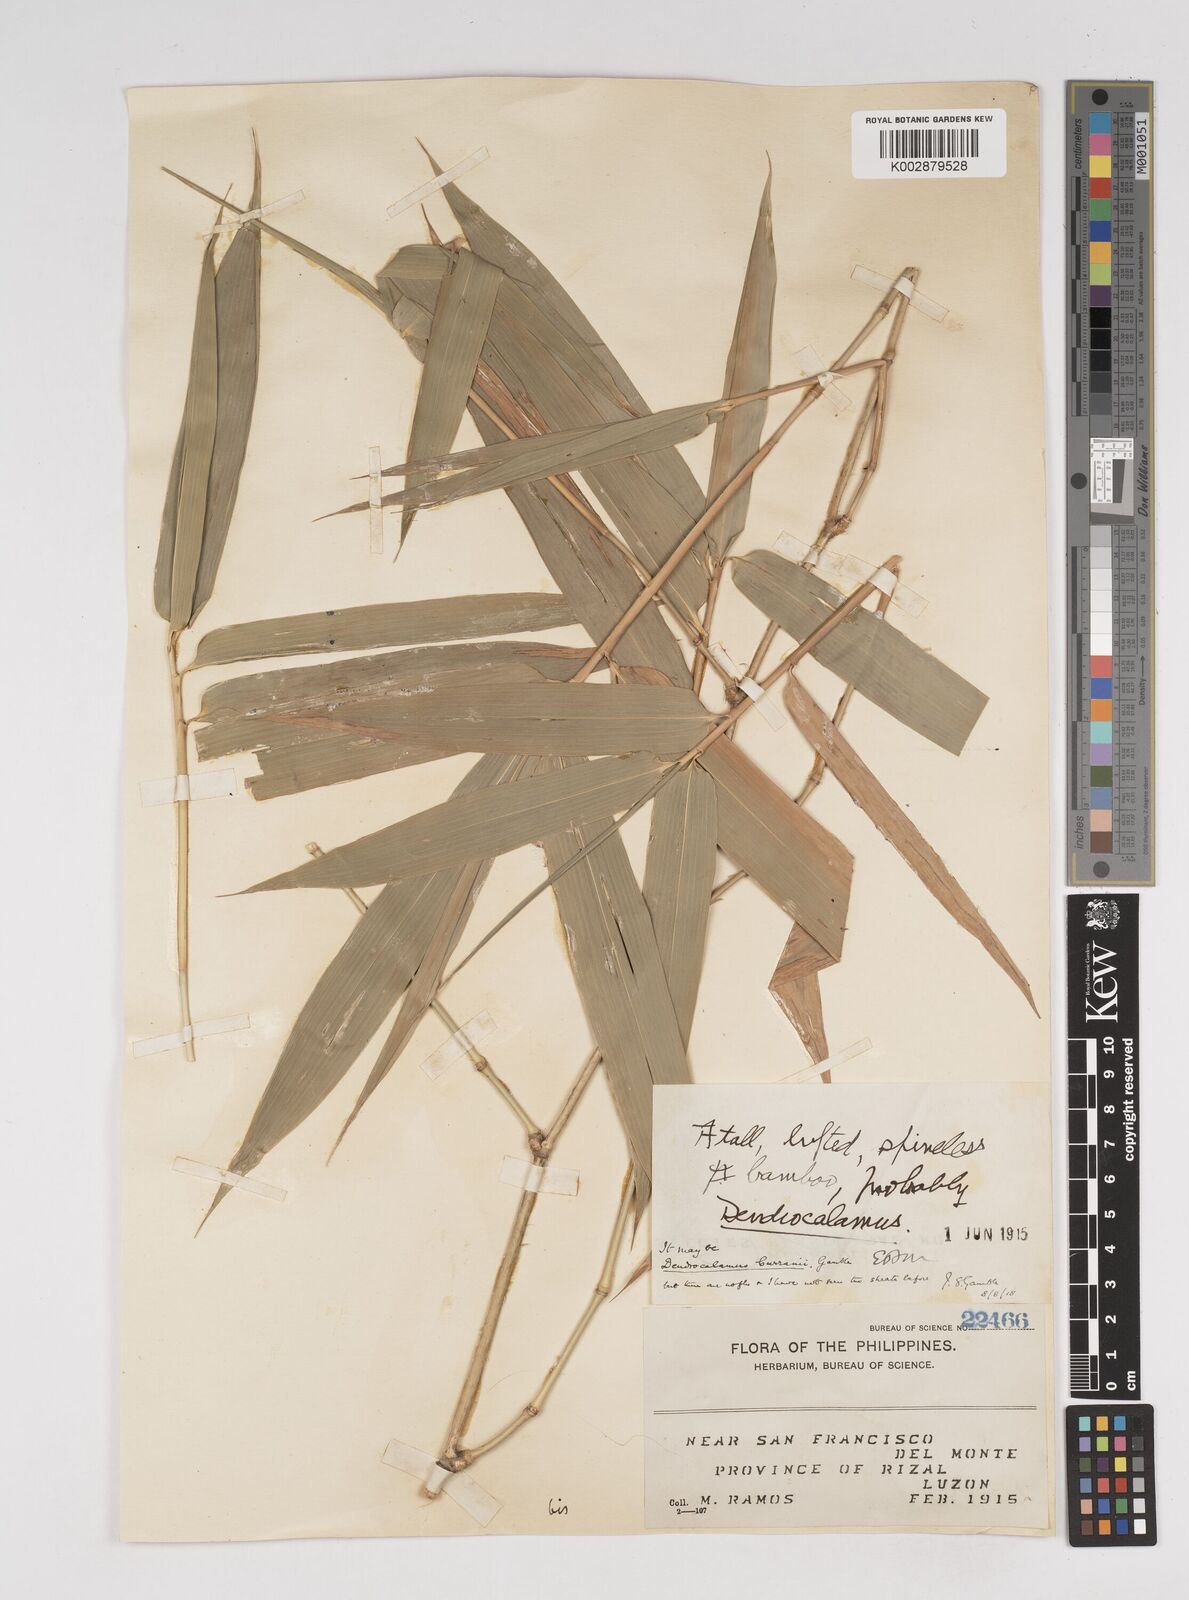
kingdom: Plantae
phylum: Tracheophyta
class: Liliopsida
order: Poales
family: Poaceae
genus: Dendrocalamus
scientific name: Dendrocalamus merrillianus
